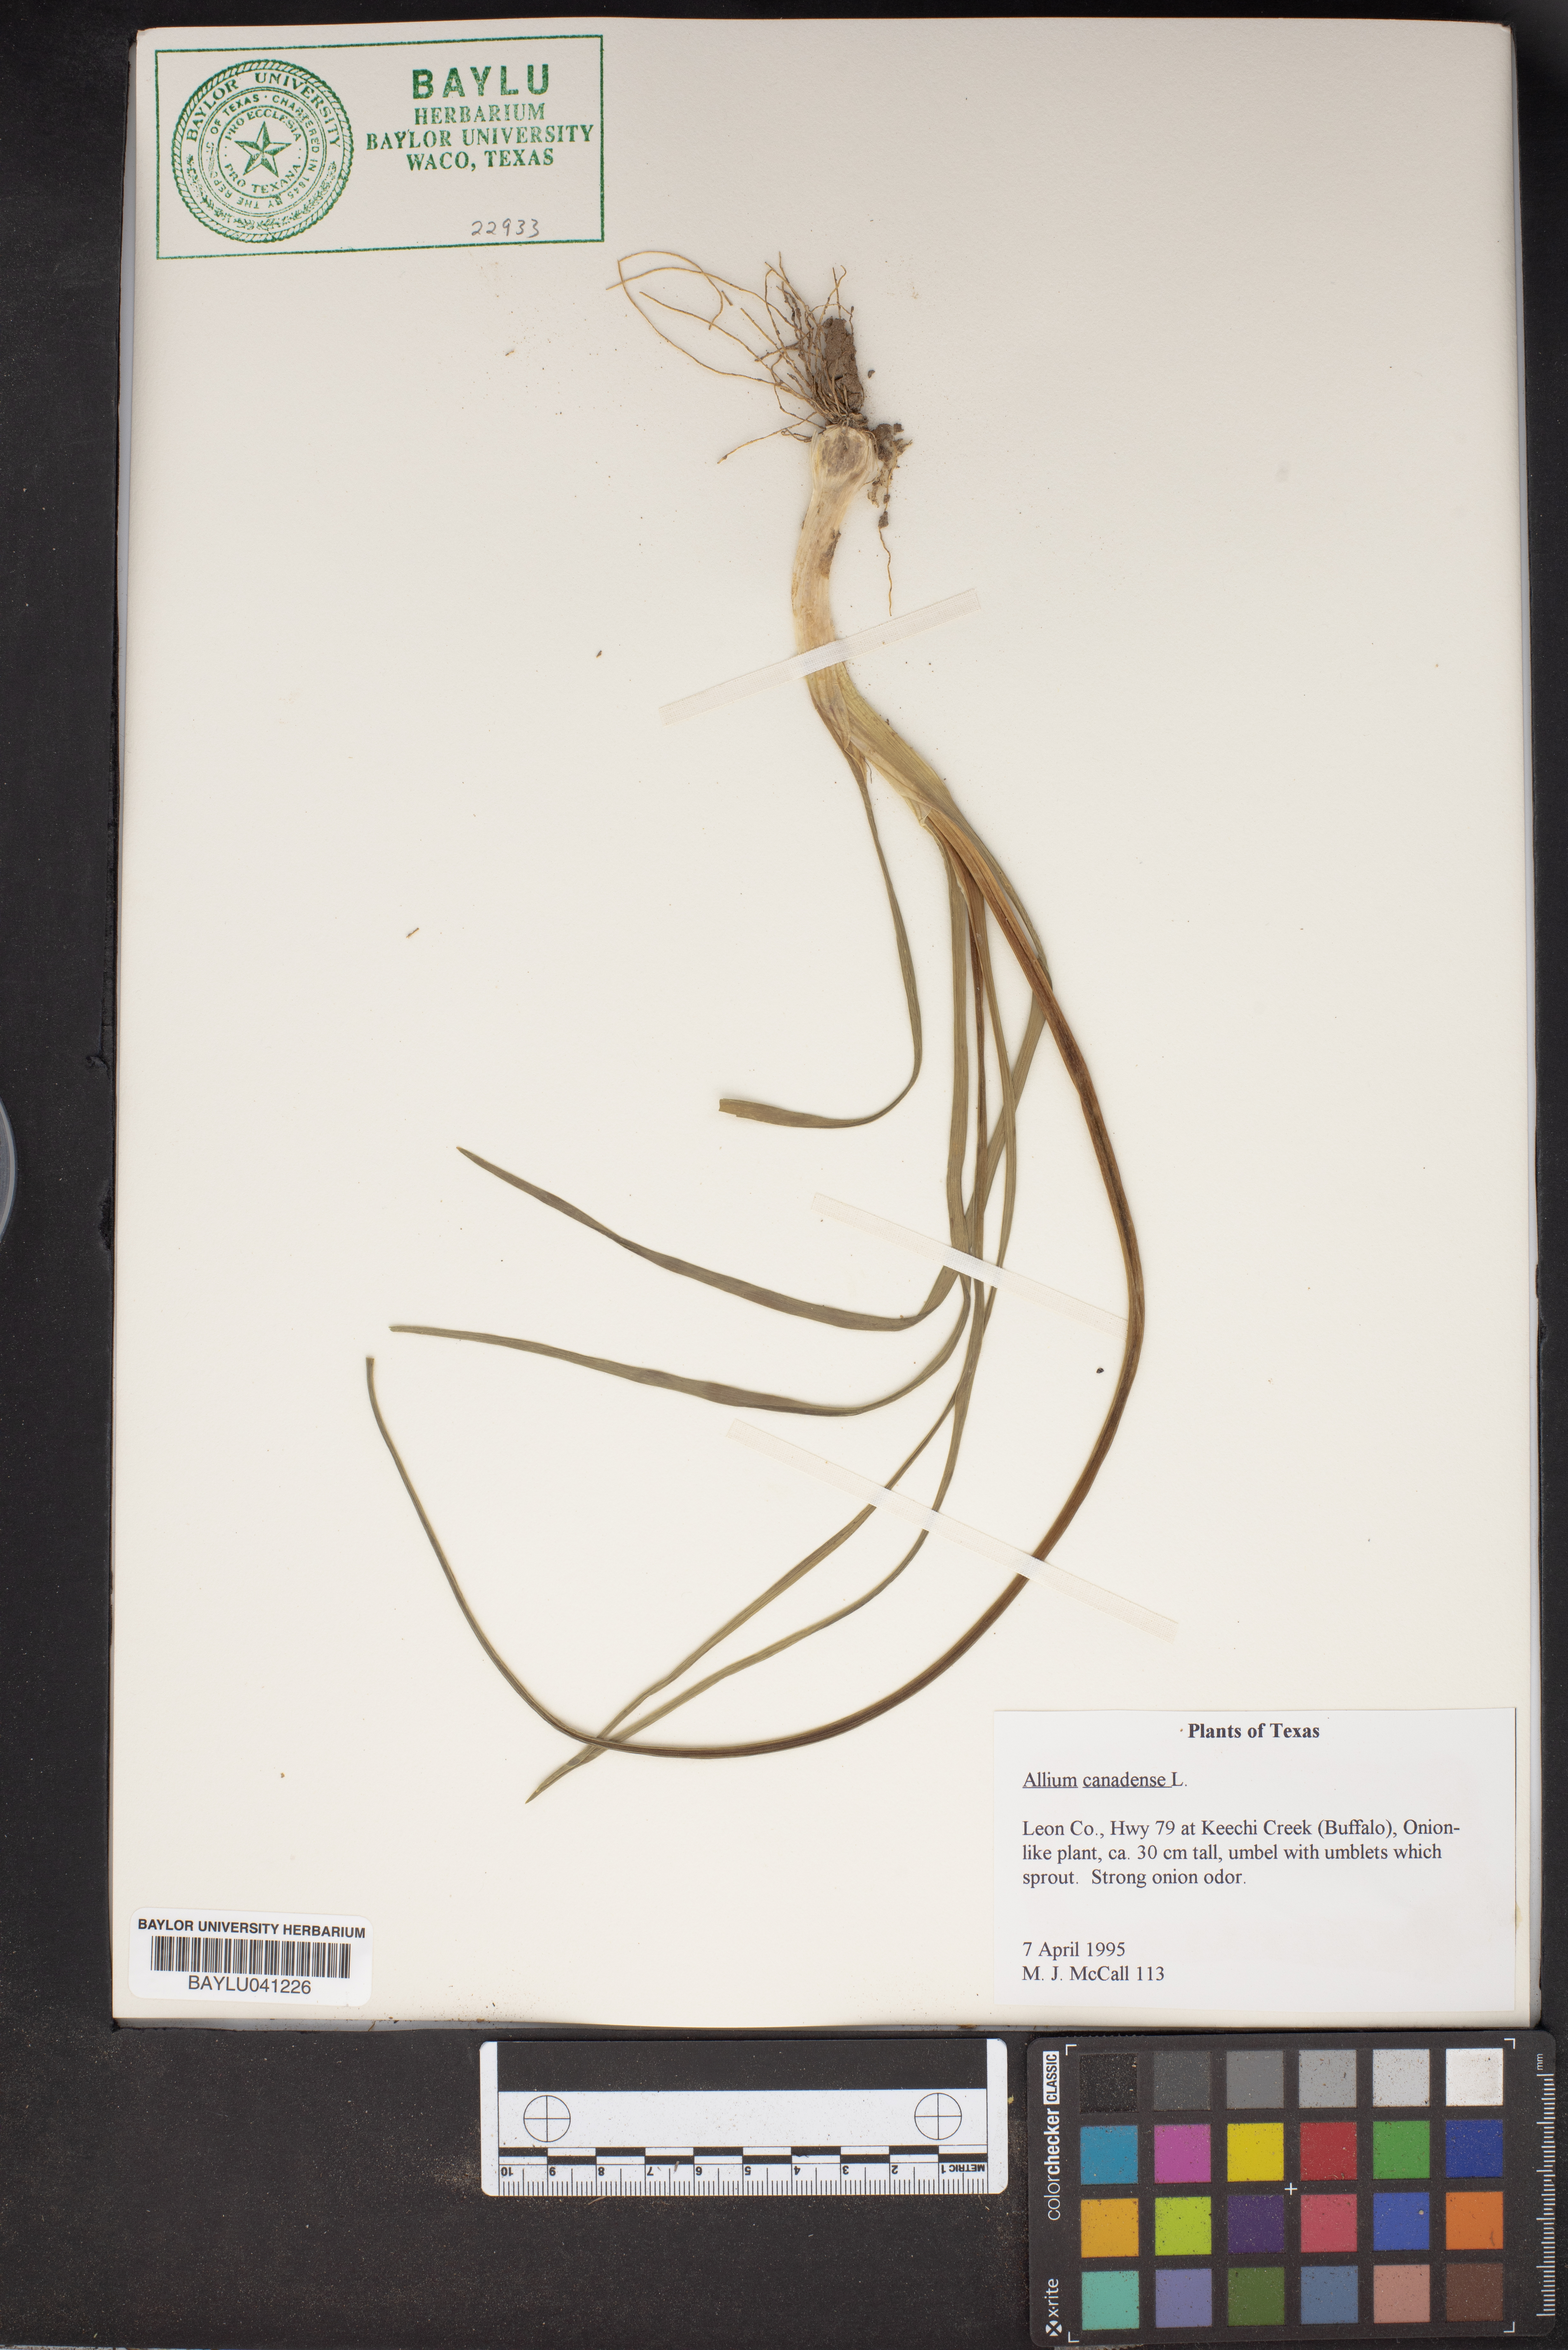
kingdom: Plantae
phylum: Tracheophyta
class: Liliopsida
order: Asparagales
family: Amaryllidaceae
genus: Allium
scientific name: Allium canadense
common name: Meadow garlic
